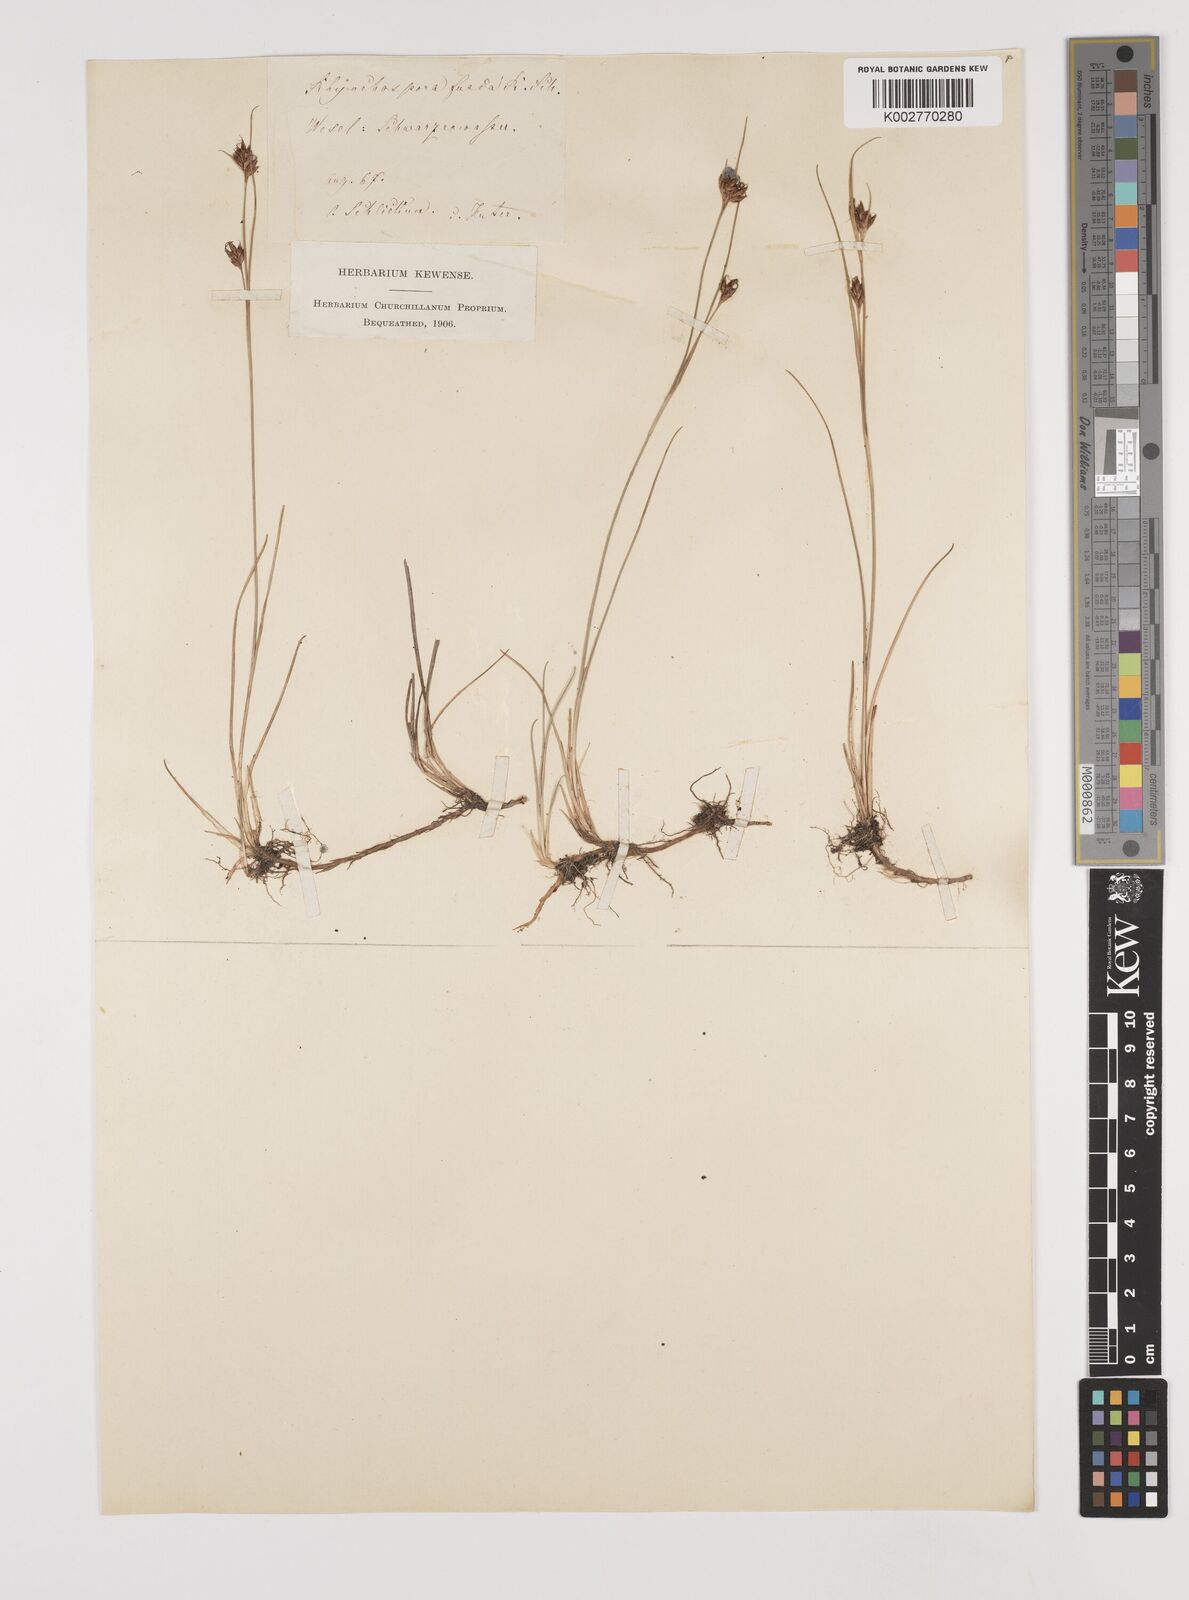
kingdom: Plantae
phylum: Tracheophyta
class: Liliopsida
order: Poales
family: Cyperaceae
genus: Rhynchospora
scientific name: Rhynchospora fusca
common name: Brown beak-sedge
